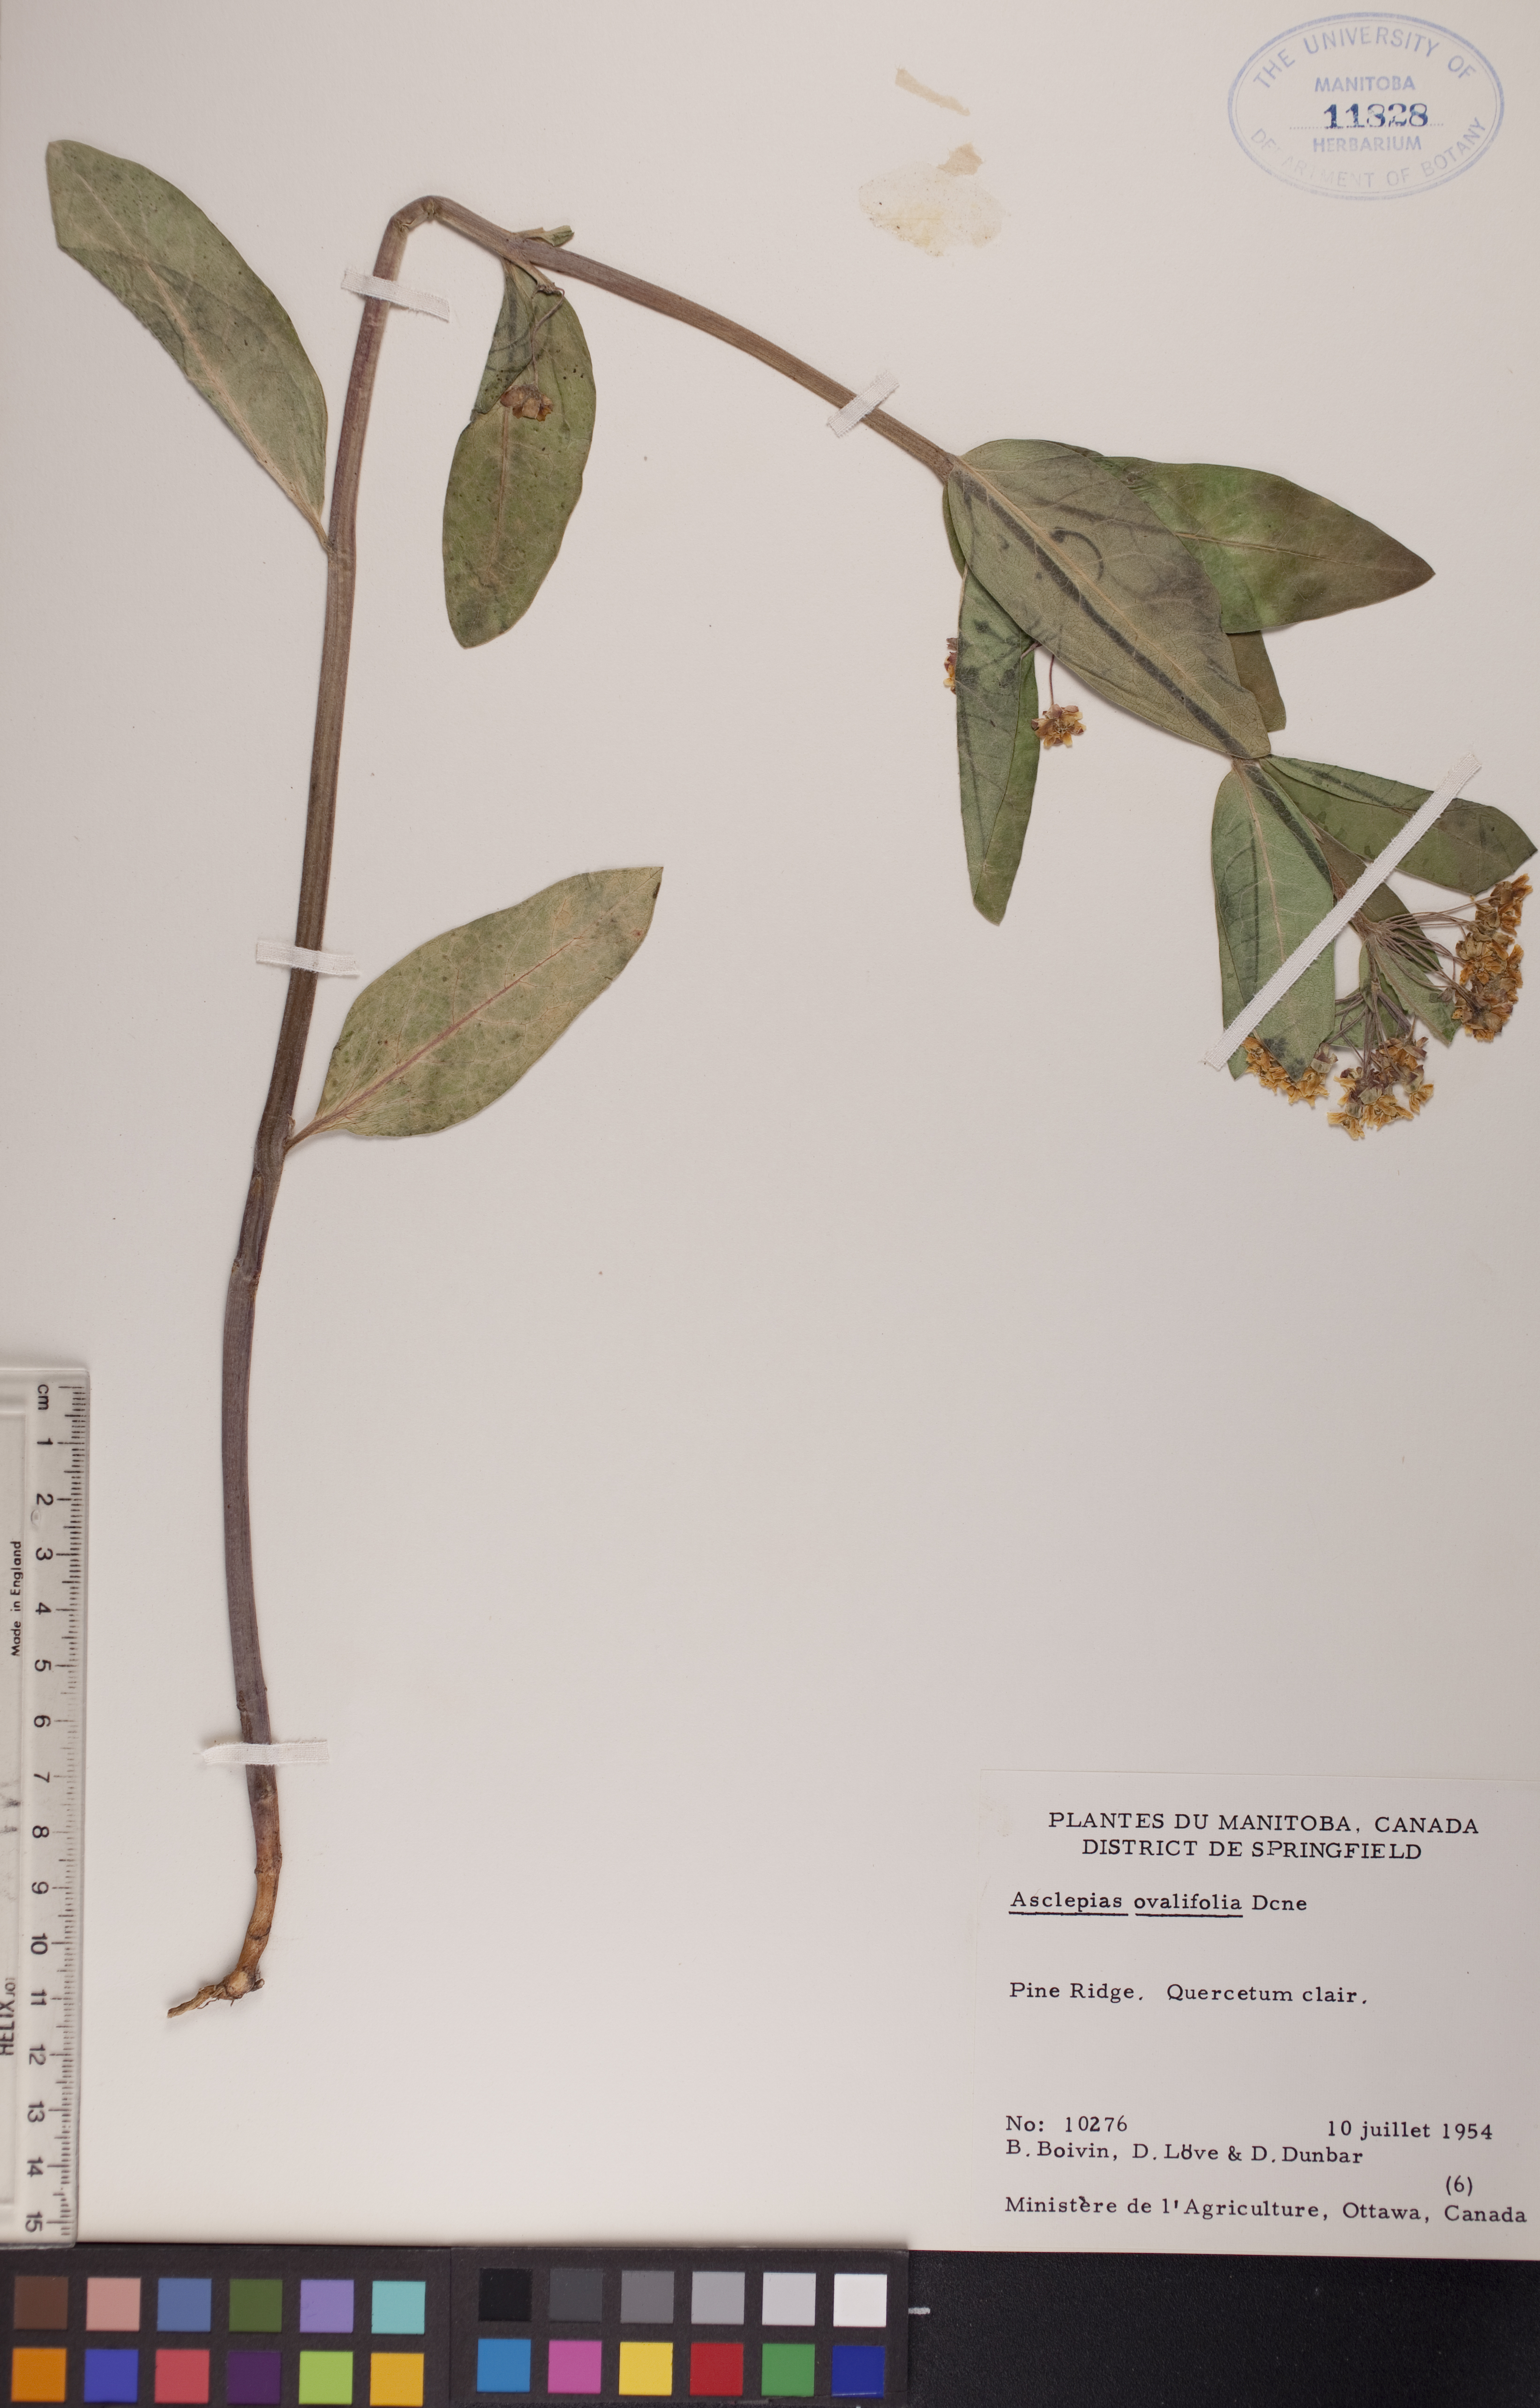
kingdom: Plantae
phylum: Tracheophyta
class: Magnoliopsida
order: Gentianales
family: Apocynaceae
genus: Asclepias
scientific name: Asclepias ovalifolia
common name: Dwarf milkweed
